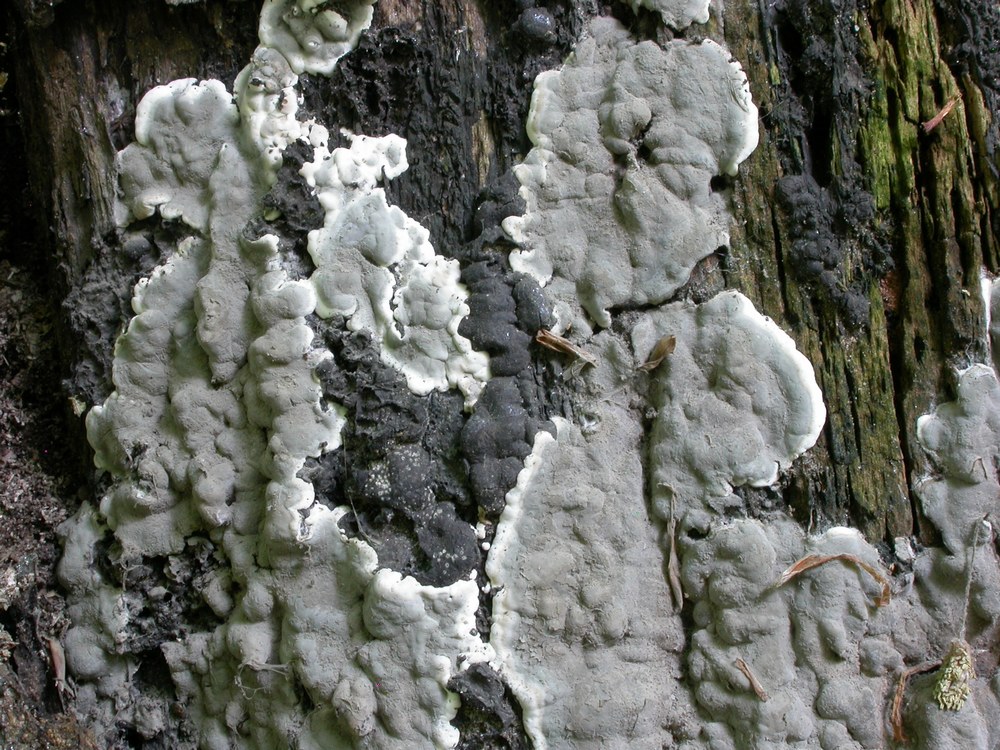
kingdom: Fungi
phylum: Ascomycota
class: Sordariomycetes
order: Xylariales
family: Xylariaceae
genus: Kretzschmaria
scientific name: Kretzschmaria deusta
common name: stor kulsvamp
